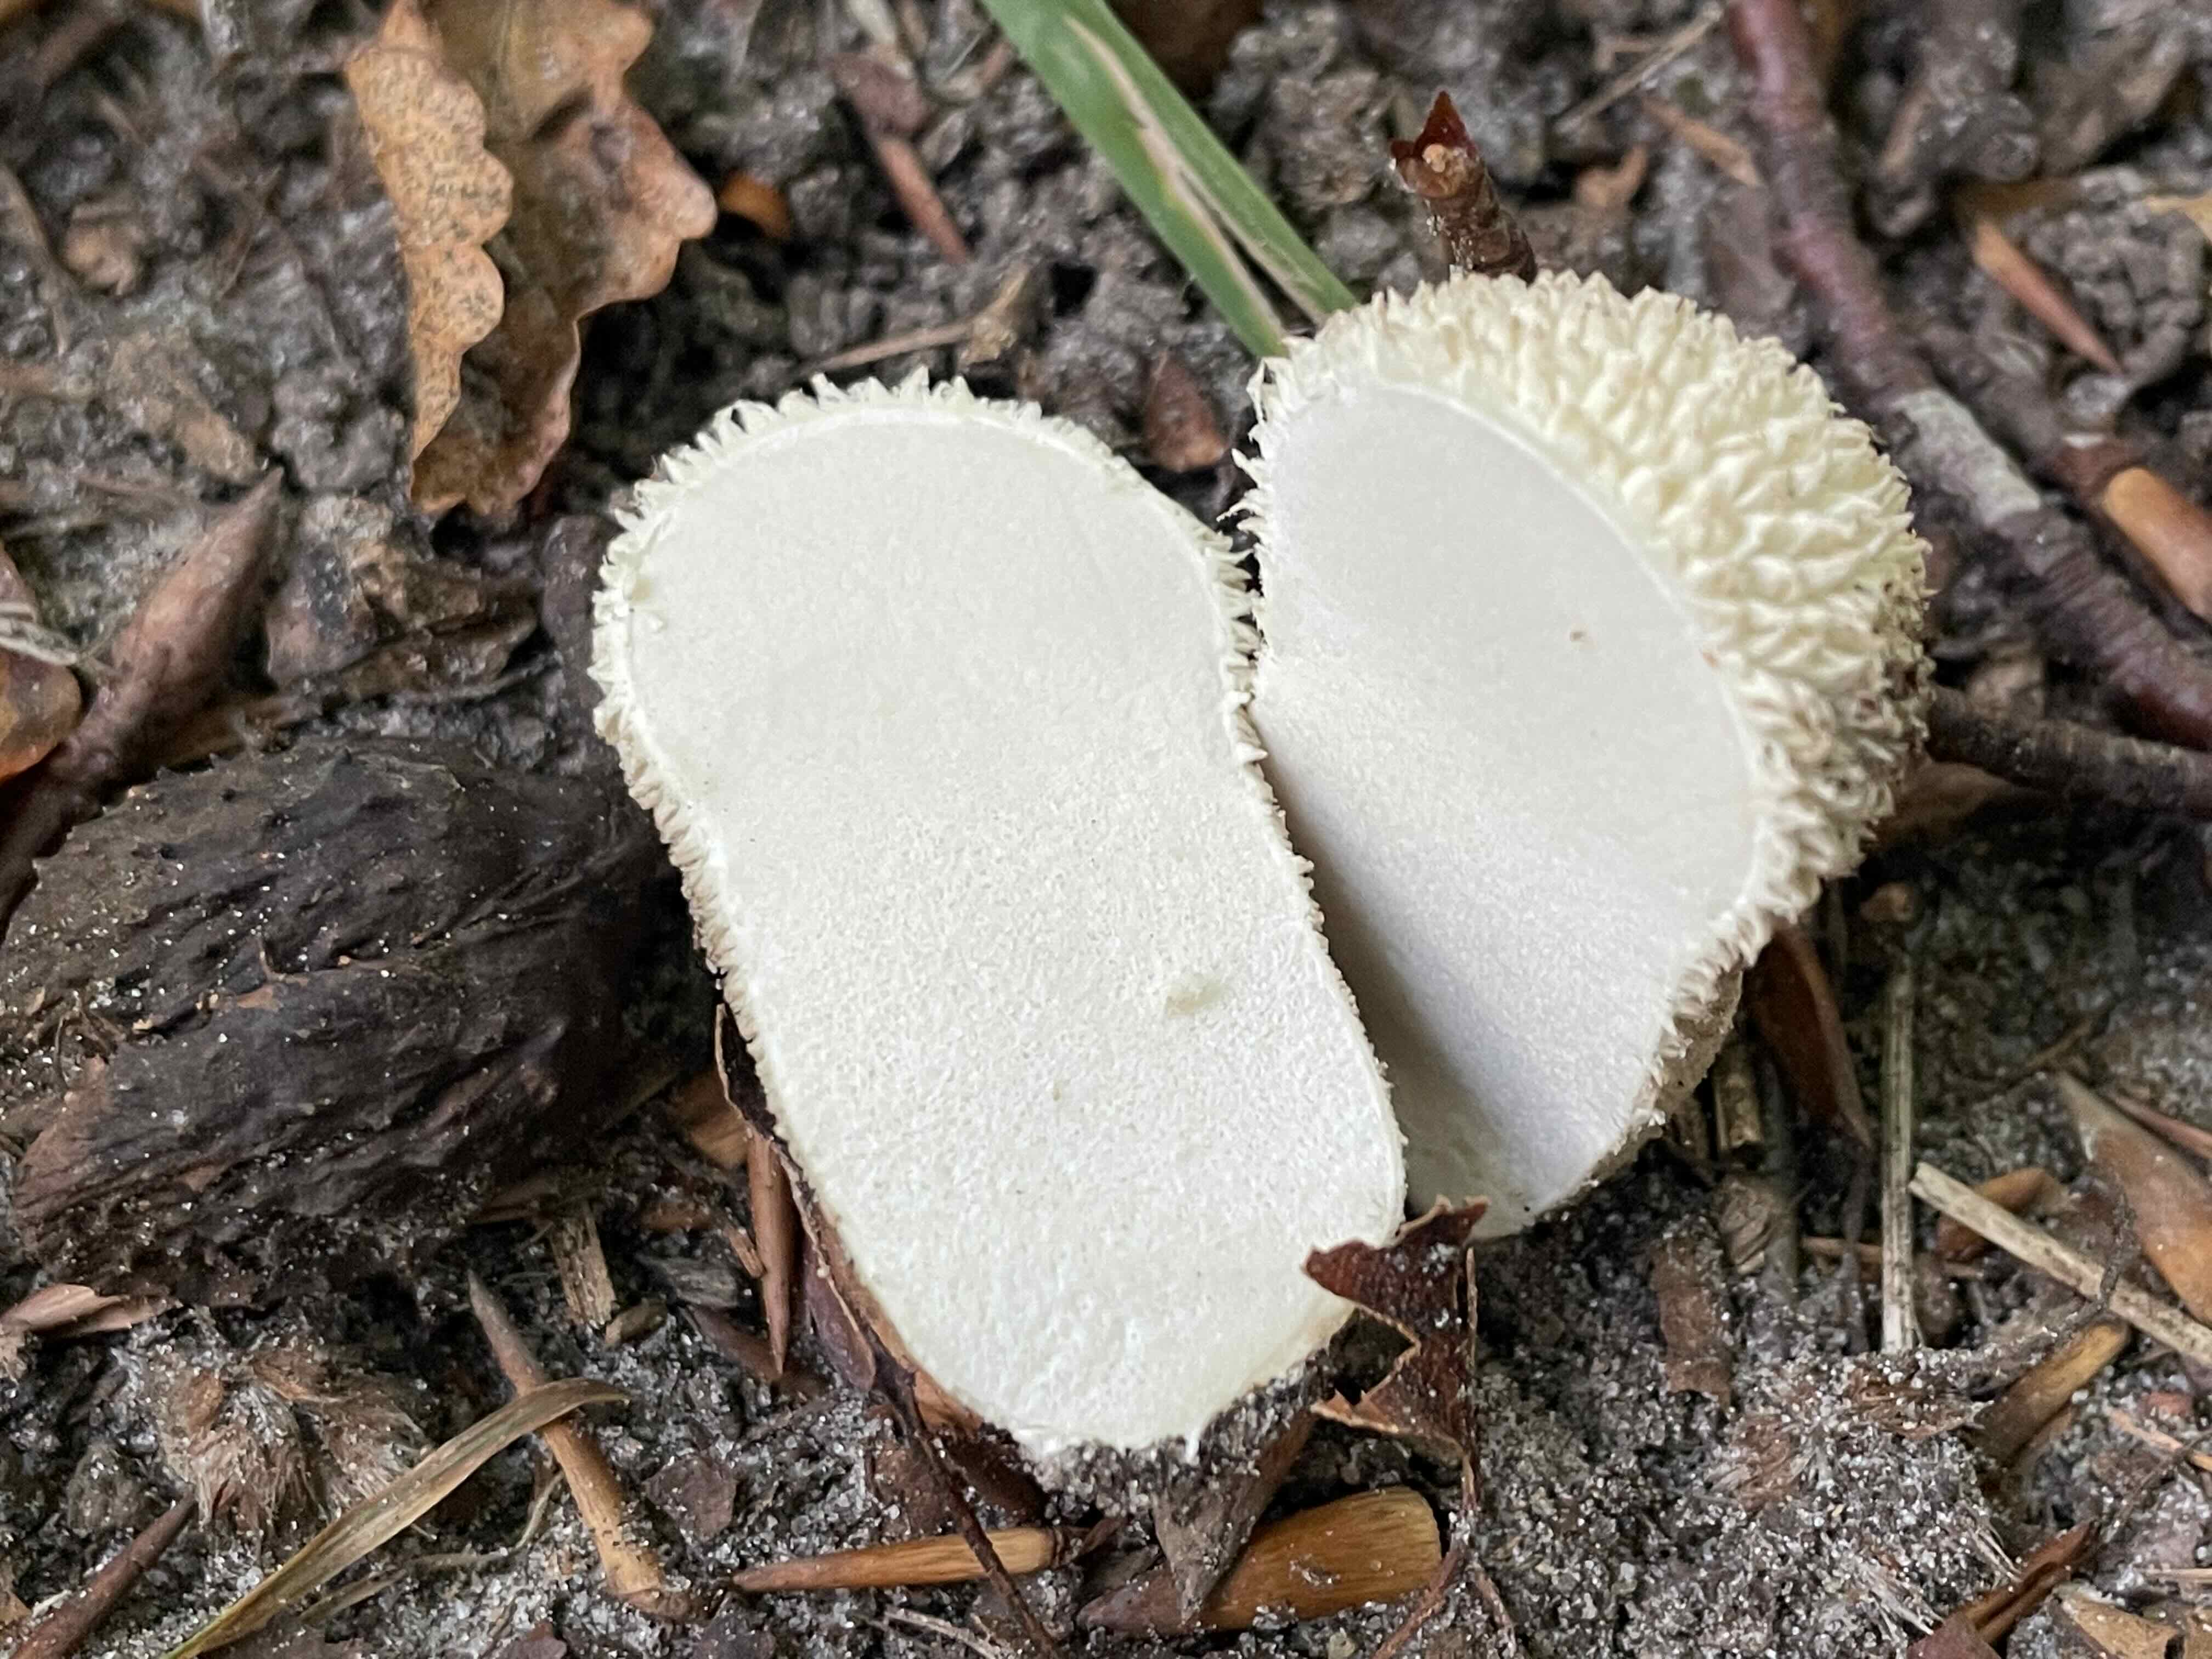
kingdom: Fungi
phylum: Basidiomycota
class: Agaricomycetes
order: Agaricales
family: Lycoperdaceae
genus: Lycoperdon
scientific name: Lycoperdon excipuliforme
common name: højstokket støvbold
